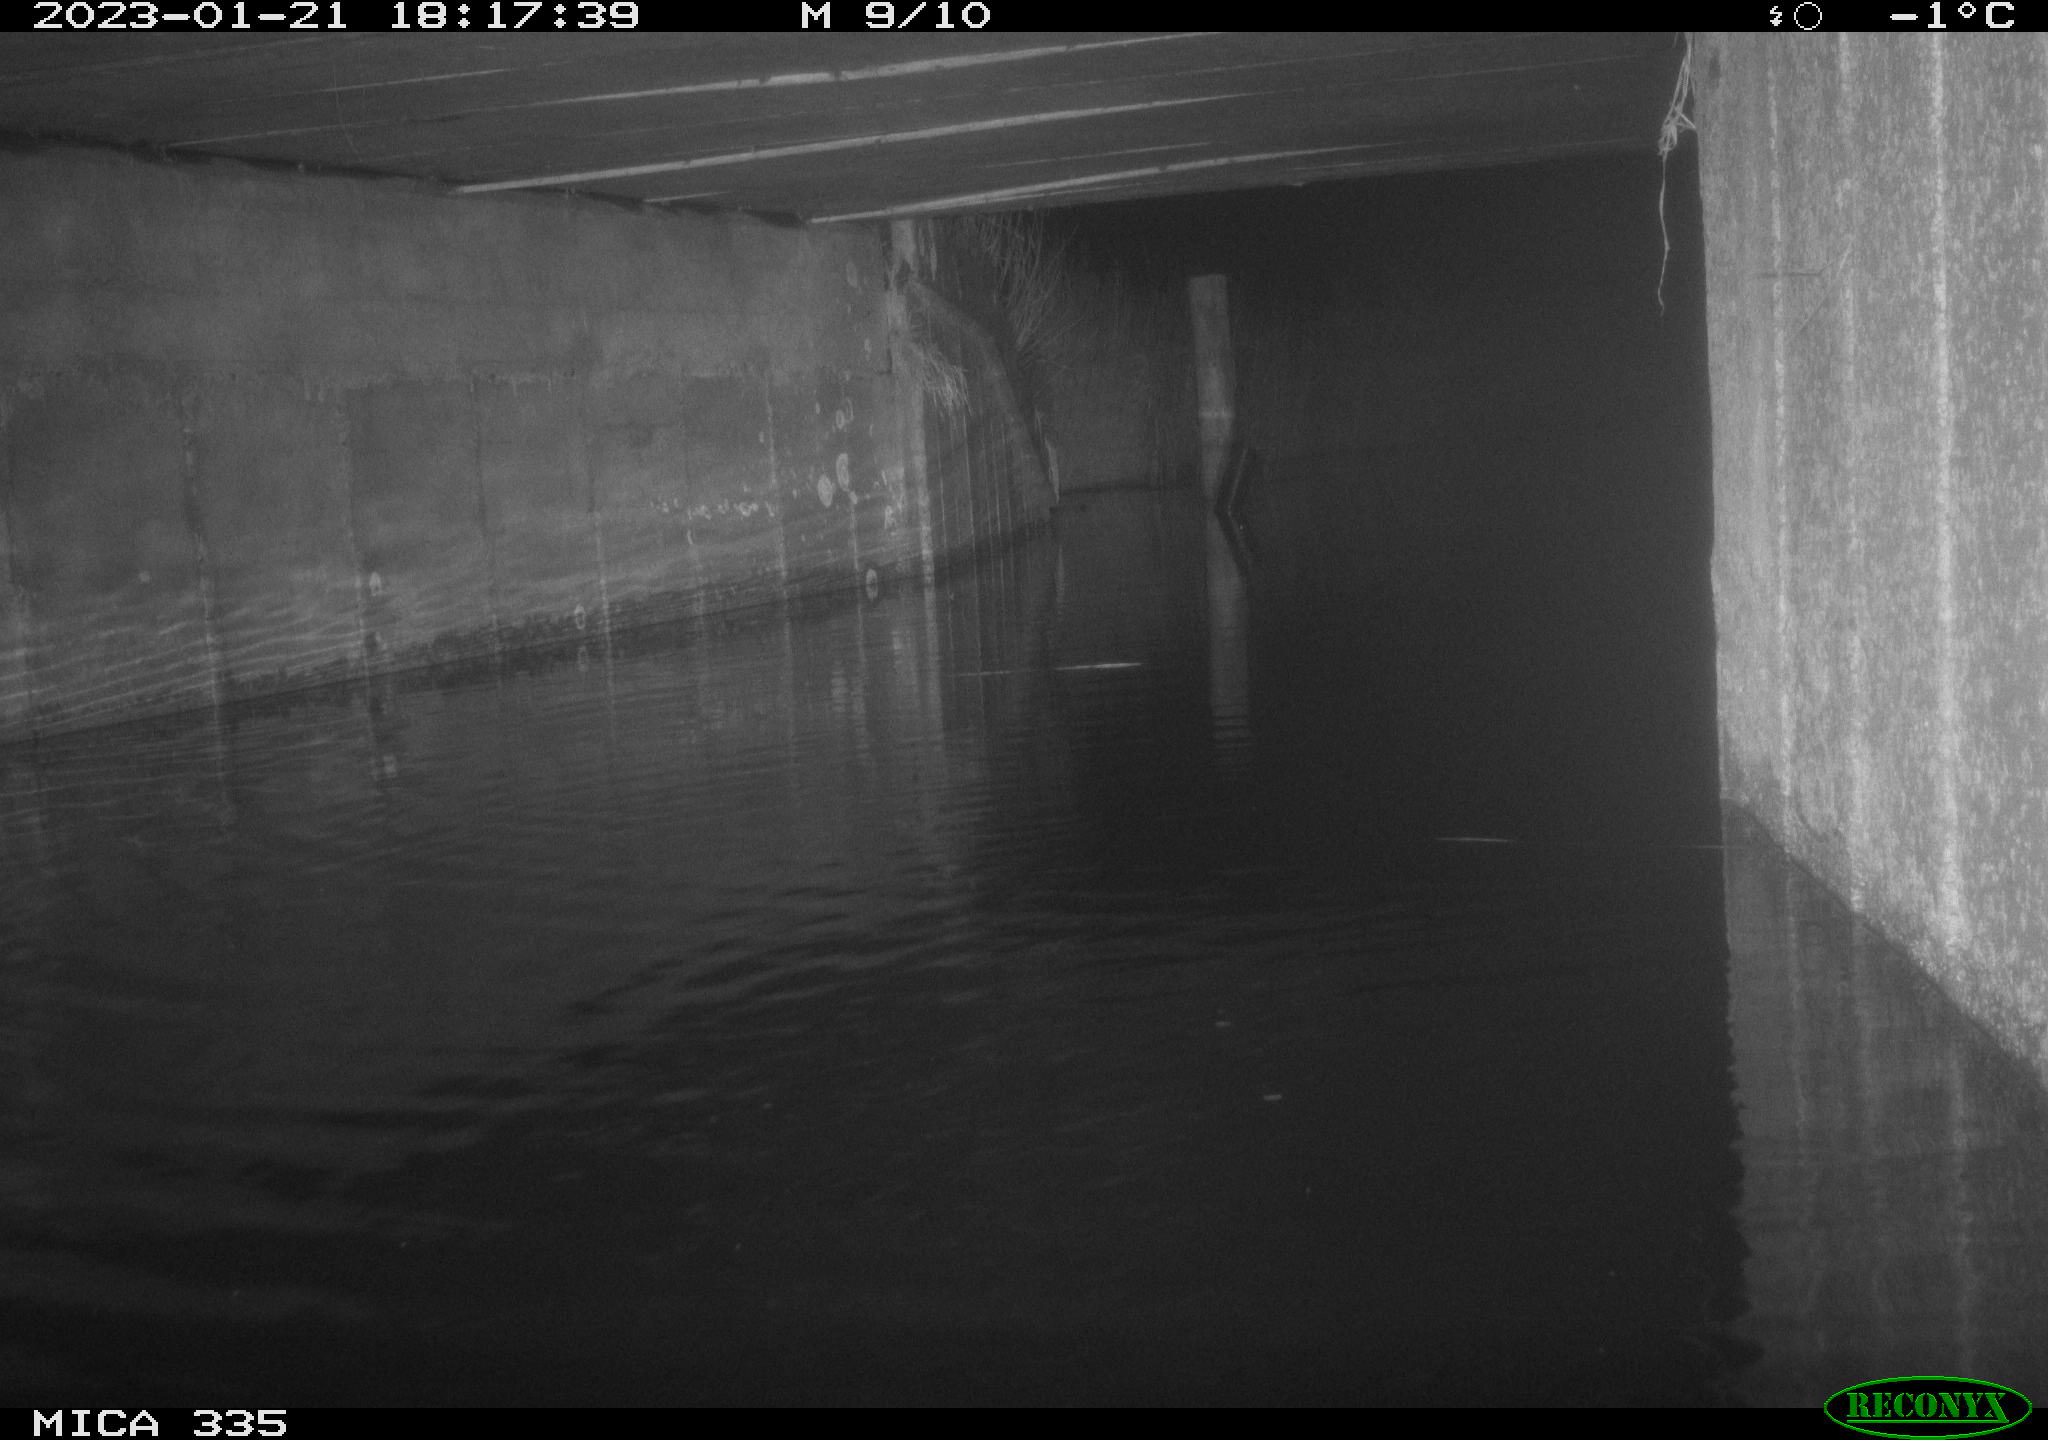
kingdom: Animalia
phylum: Chordata
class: Mammalia
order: Rodentia
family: Muridae
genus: Rattus
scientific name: Rattus norvegicus
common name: Brown rat
